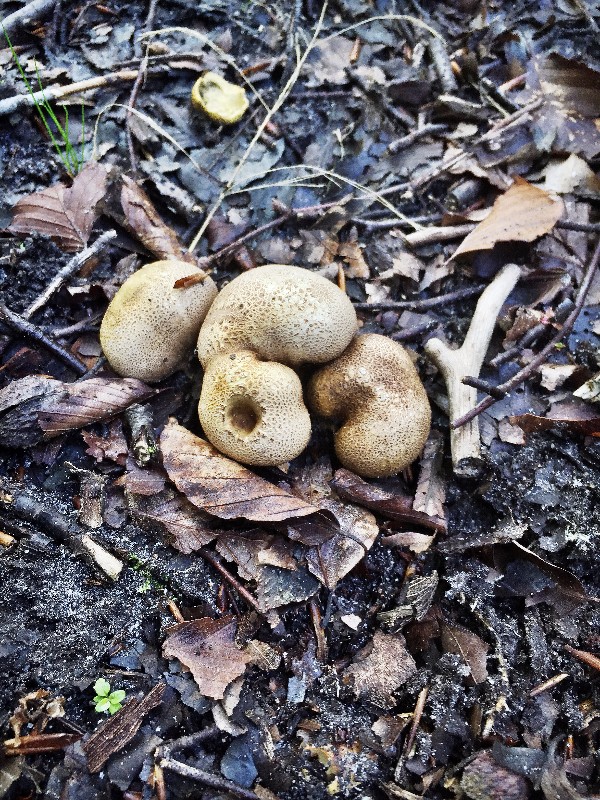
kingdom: Fungi
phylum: Basidiomycota
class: Agaricomycetes
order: Boletales
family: Sclerodermataceae
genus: Scleroderma
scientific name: Scleroderma citrinum
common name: almindelig bruskbold
